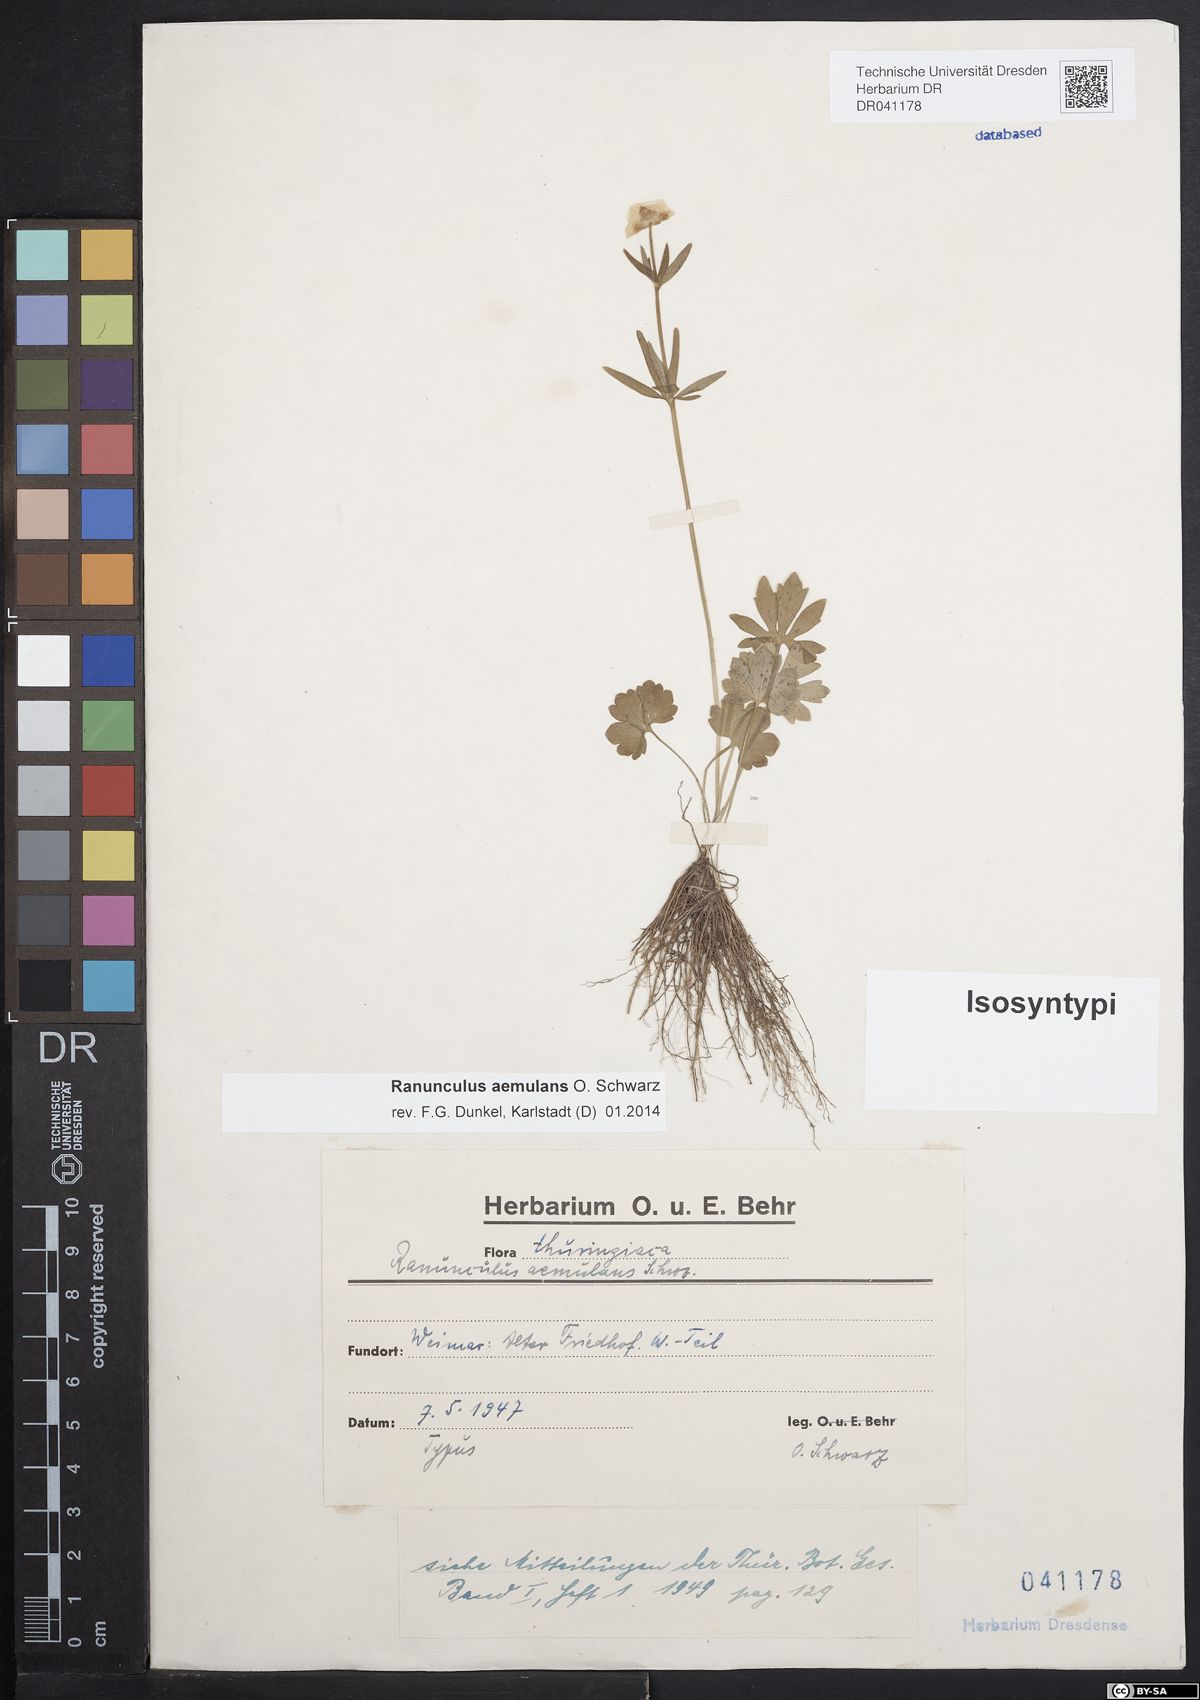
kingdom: Plantae
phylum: Tracheophyta
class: Magnoliopsida
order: Ranunculales
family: Ranunculaceae
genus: Ranunculus
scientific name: Ranunculus aemulans
